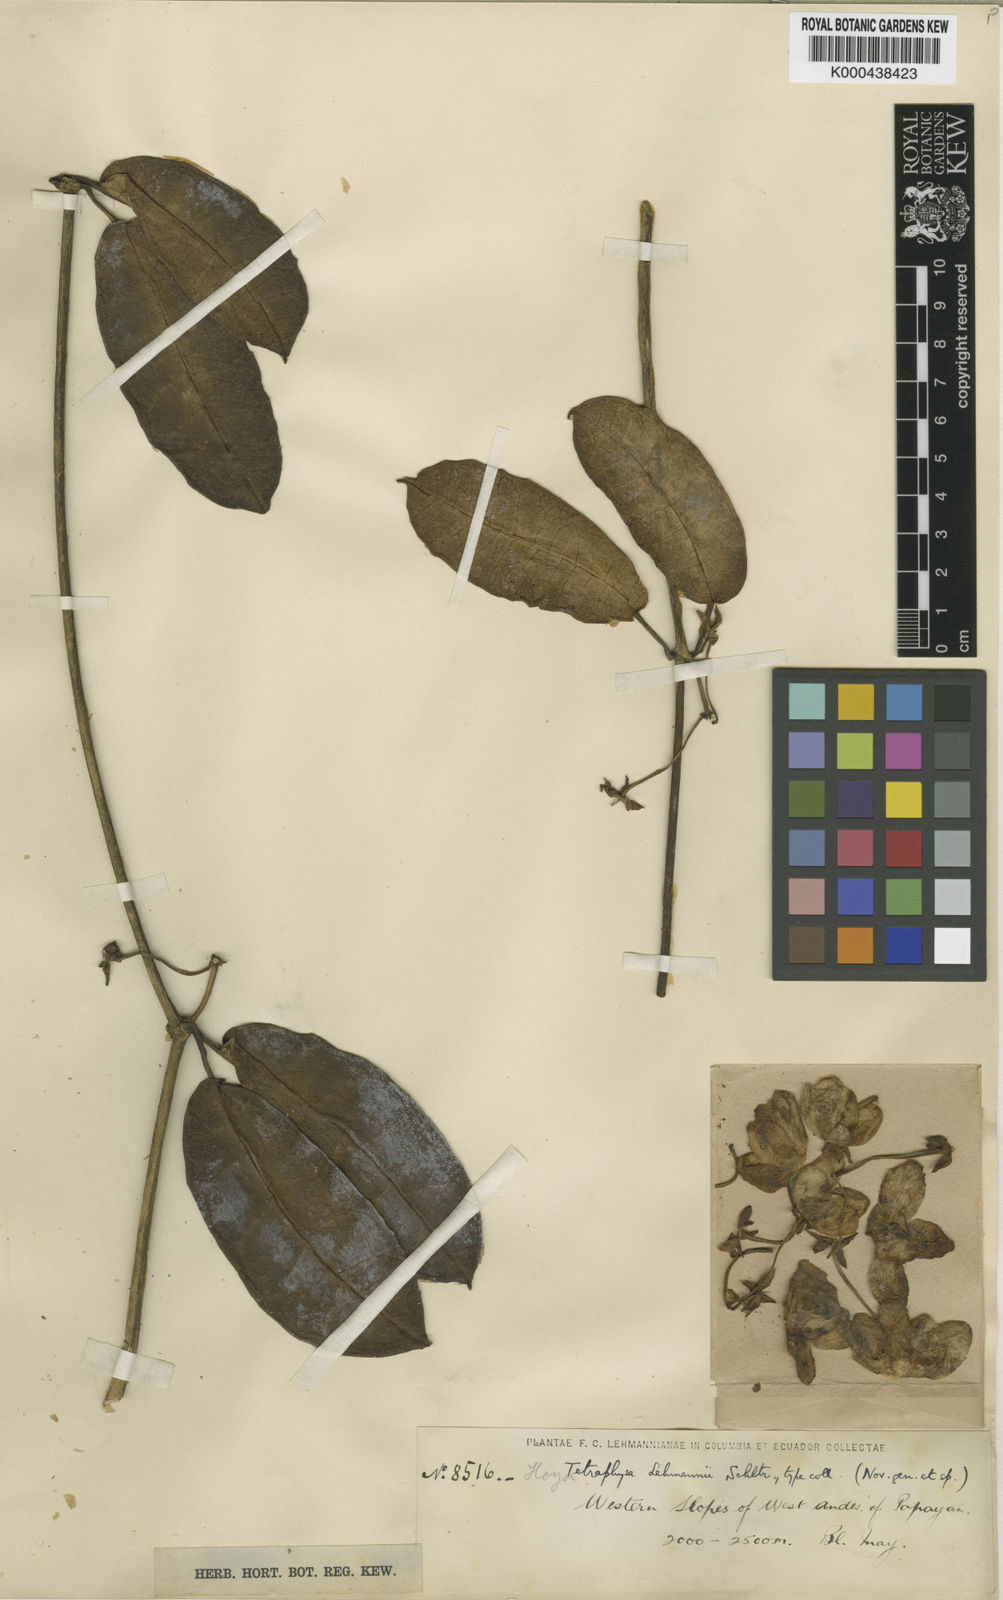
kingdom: Plantae
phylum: Tracheophyta
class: Magnoliopsida
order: Gentianales
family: Apocynaceae
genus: Pentacyphus
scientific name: Pentacyphus lehmannii
